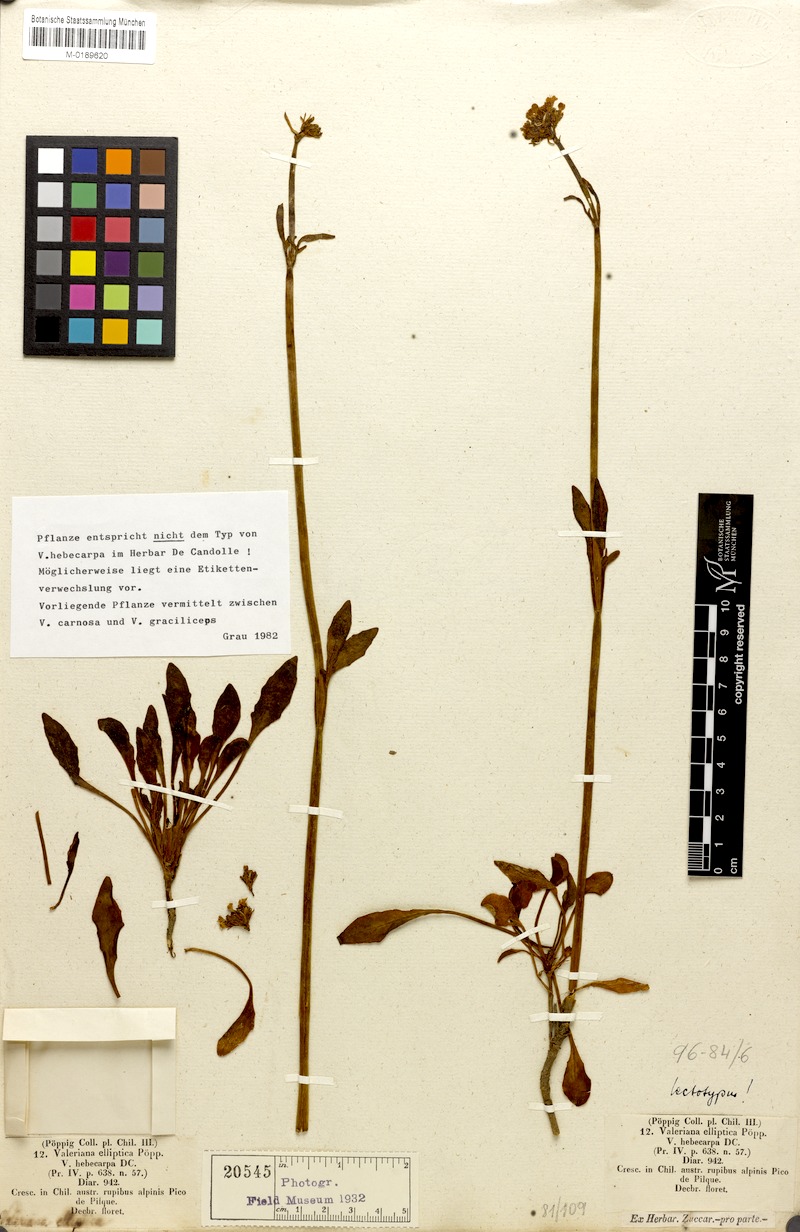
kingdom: Plantae
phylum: Tracheophyta
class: Magnoliopsida
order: Dipsacales
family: Caprifoliaceae
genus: Valeriana
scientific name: Valeriana hebecarpa
